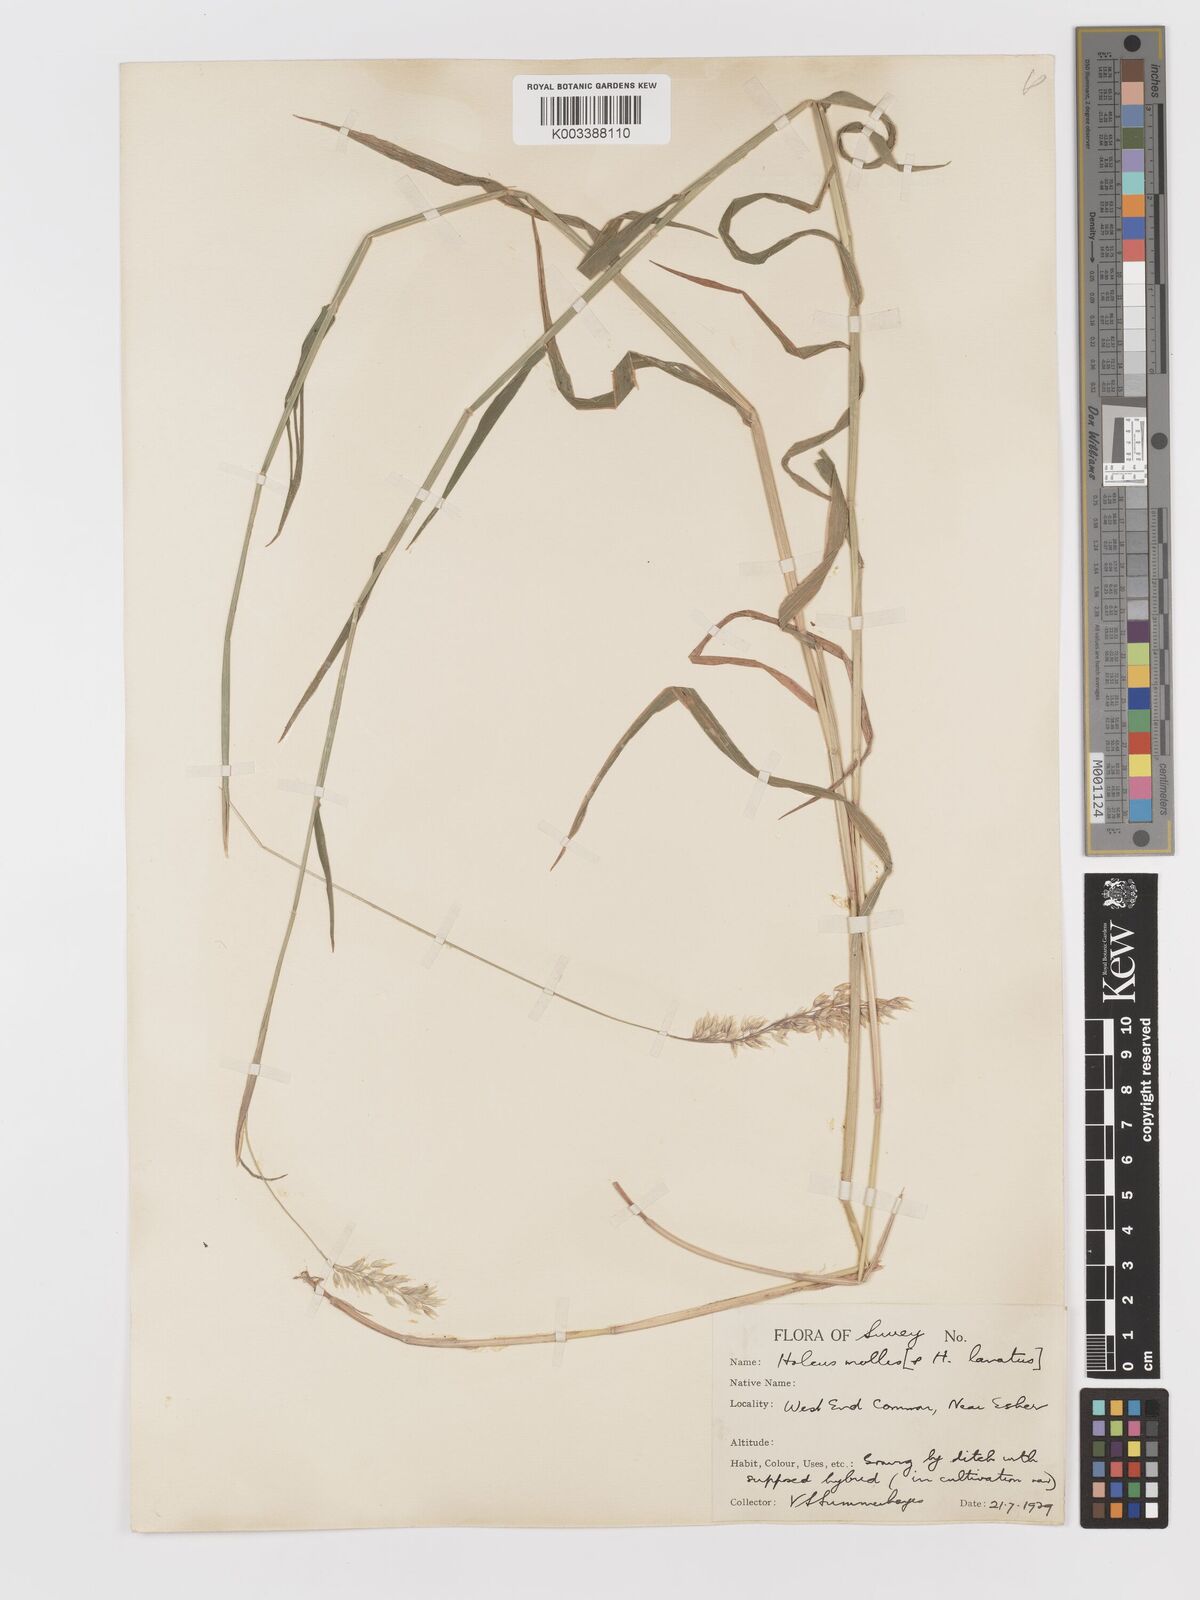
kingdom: Plantae
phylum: Tracheophyta
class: Liliopsida
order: Poales
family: Poaceae
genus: Holcus
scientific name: Holcus mollis
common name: Creeping velvetgrass
